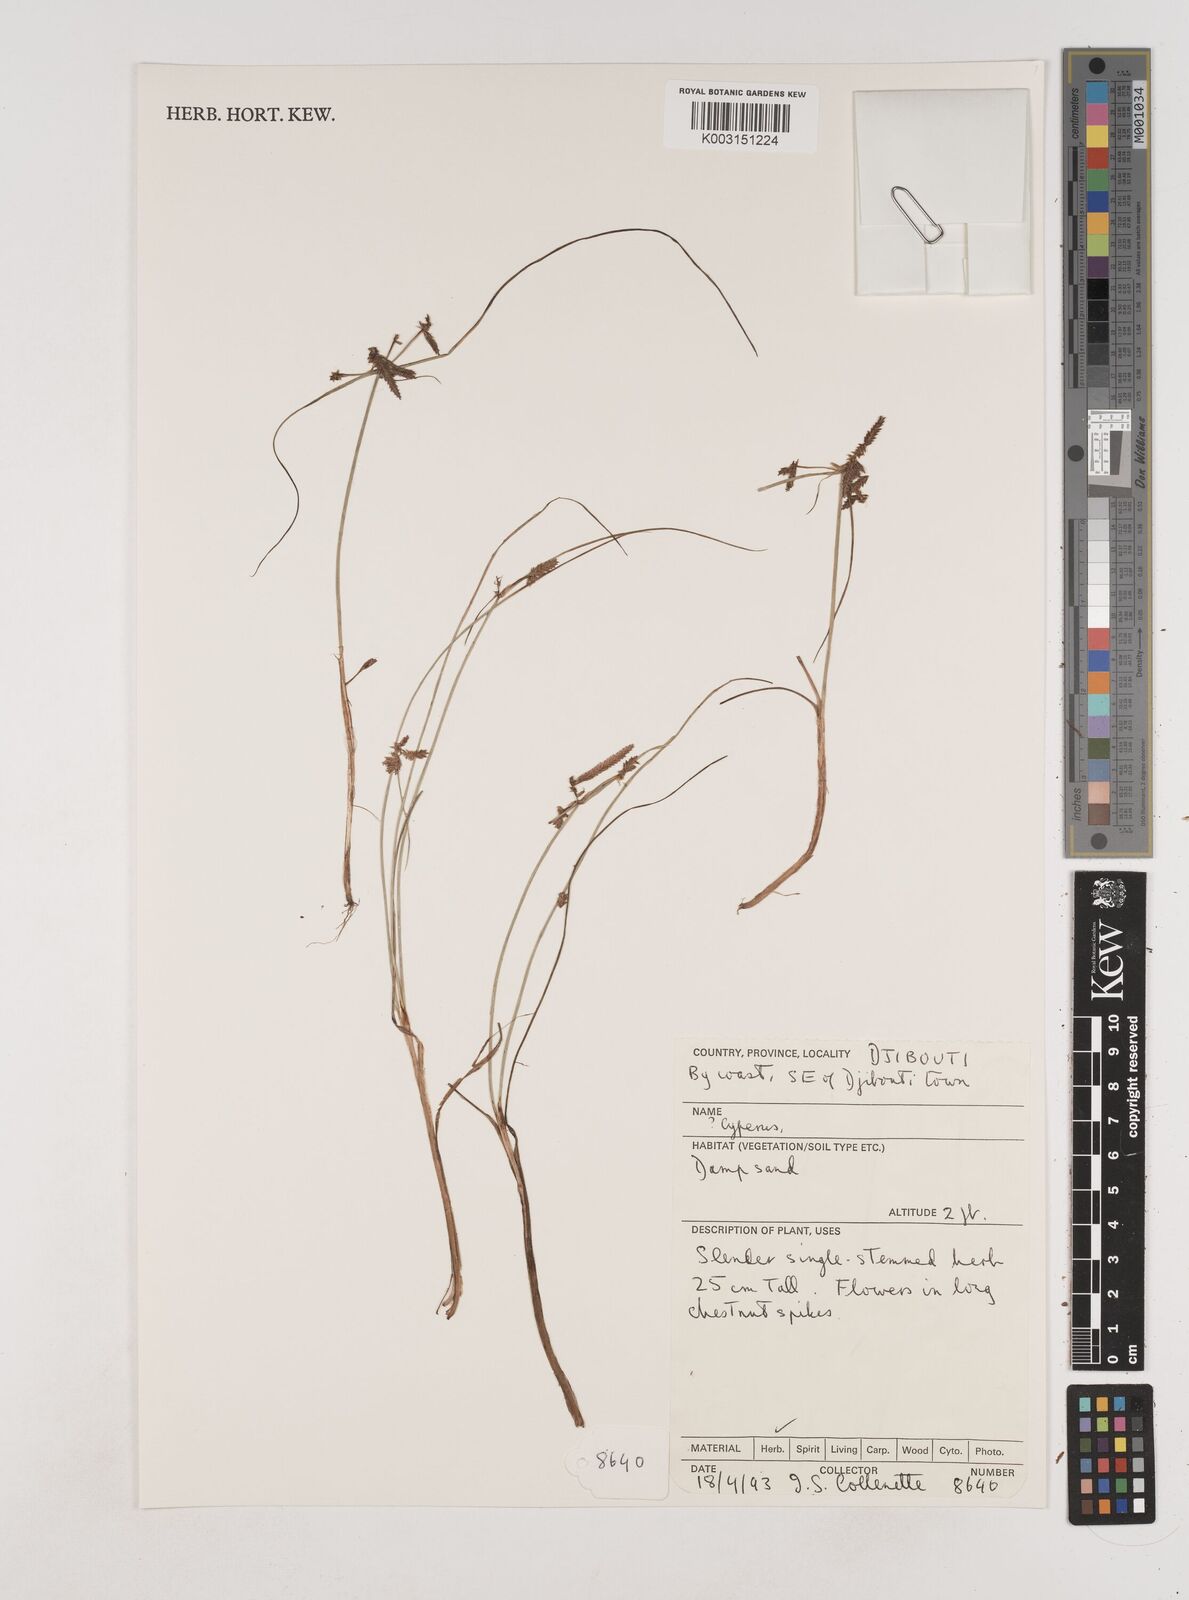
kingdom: Plantae
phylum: Tracheophyta
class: Liliopsida
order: Poales
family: Cyperaceae
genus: Cyperus
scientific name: Cyperus
